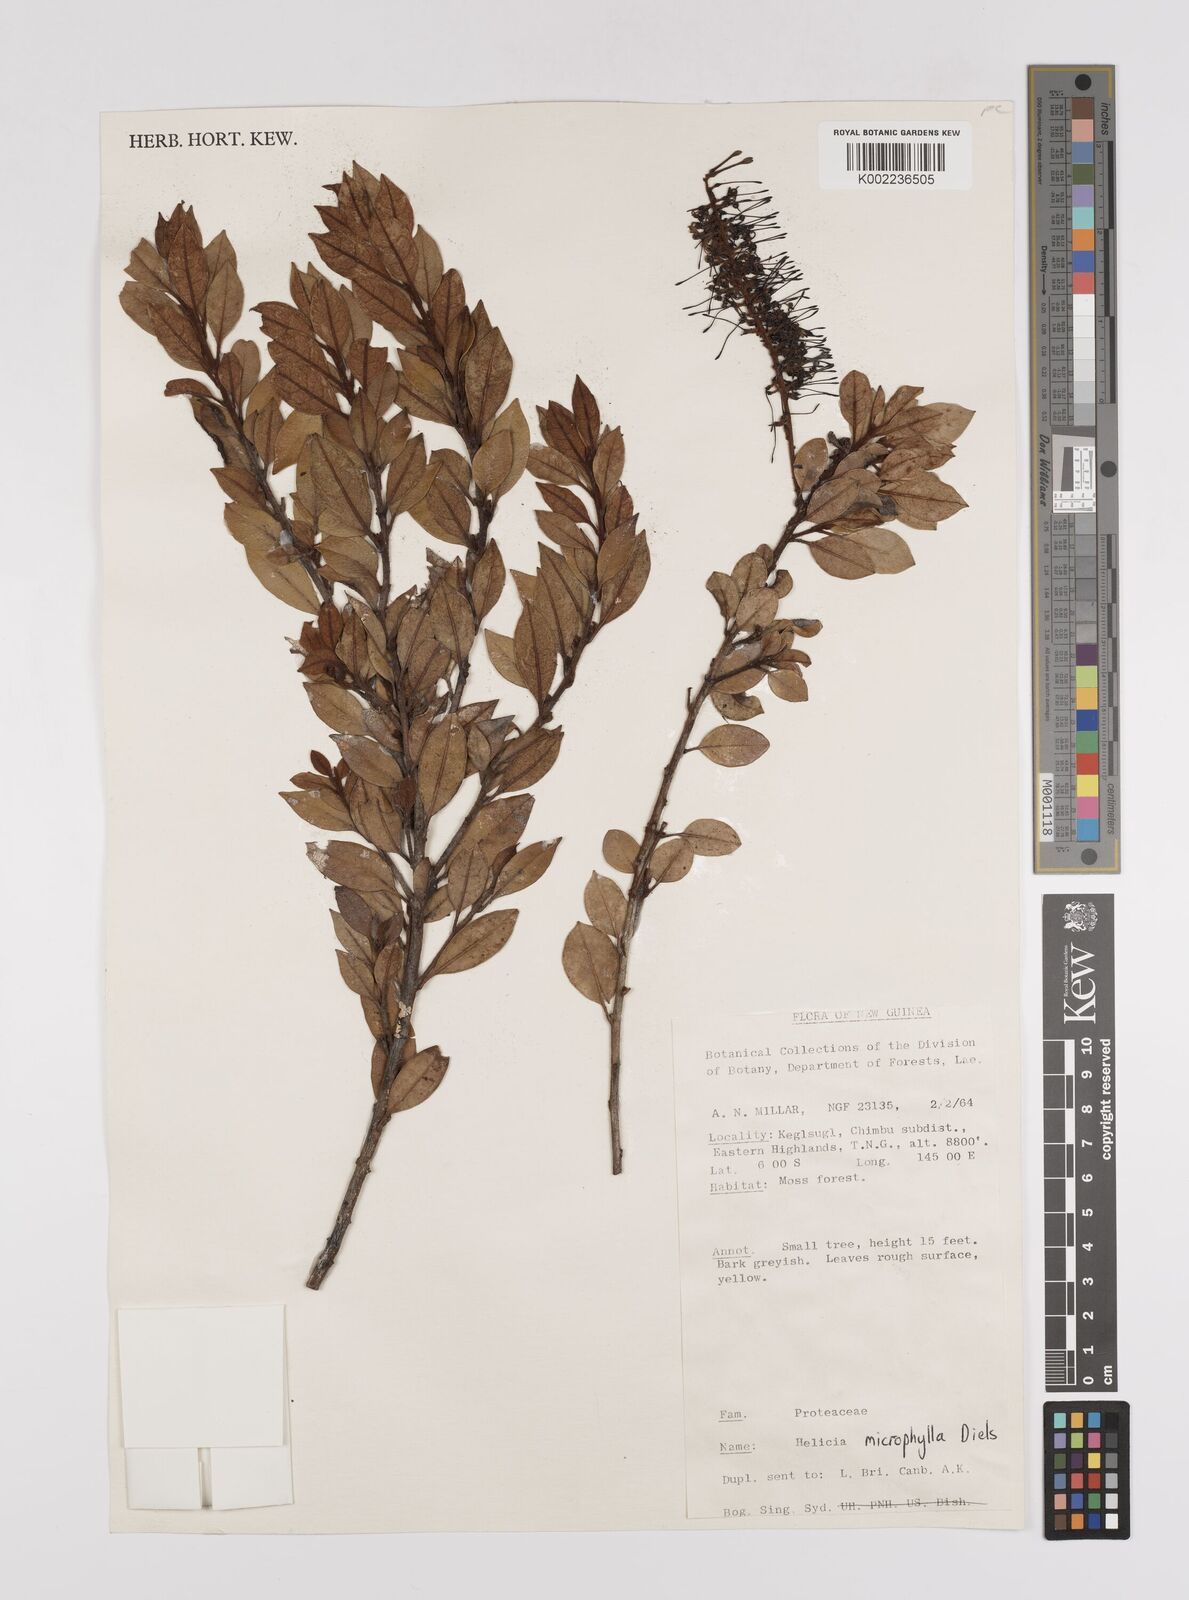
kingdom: Plantae
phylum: Tracheophyta
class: Magnoliopsida
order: Proteales
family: Proteaceae
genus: Helicia
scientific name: Helicia microphylla
